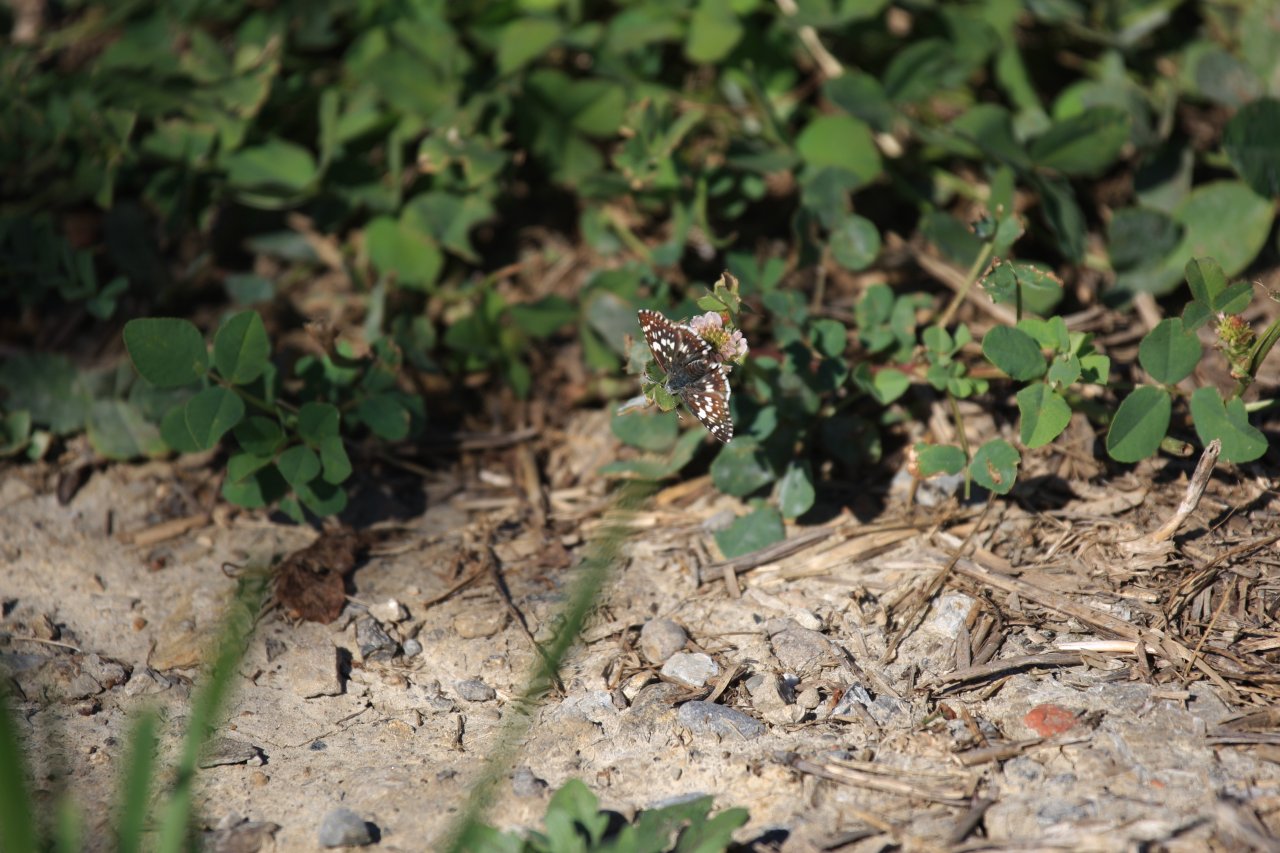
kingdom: Animalia
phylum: Arthropoda
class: Insecta
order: Lepidoptera
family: Hesperiidae
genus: Pyrgus
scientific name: Pyrgus communis
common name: Common Checkered-Skipper
